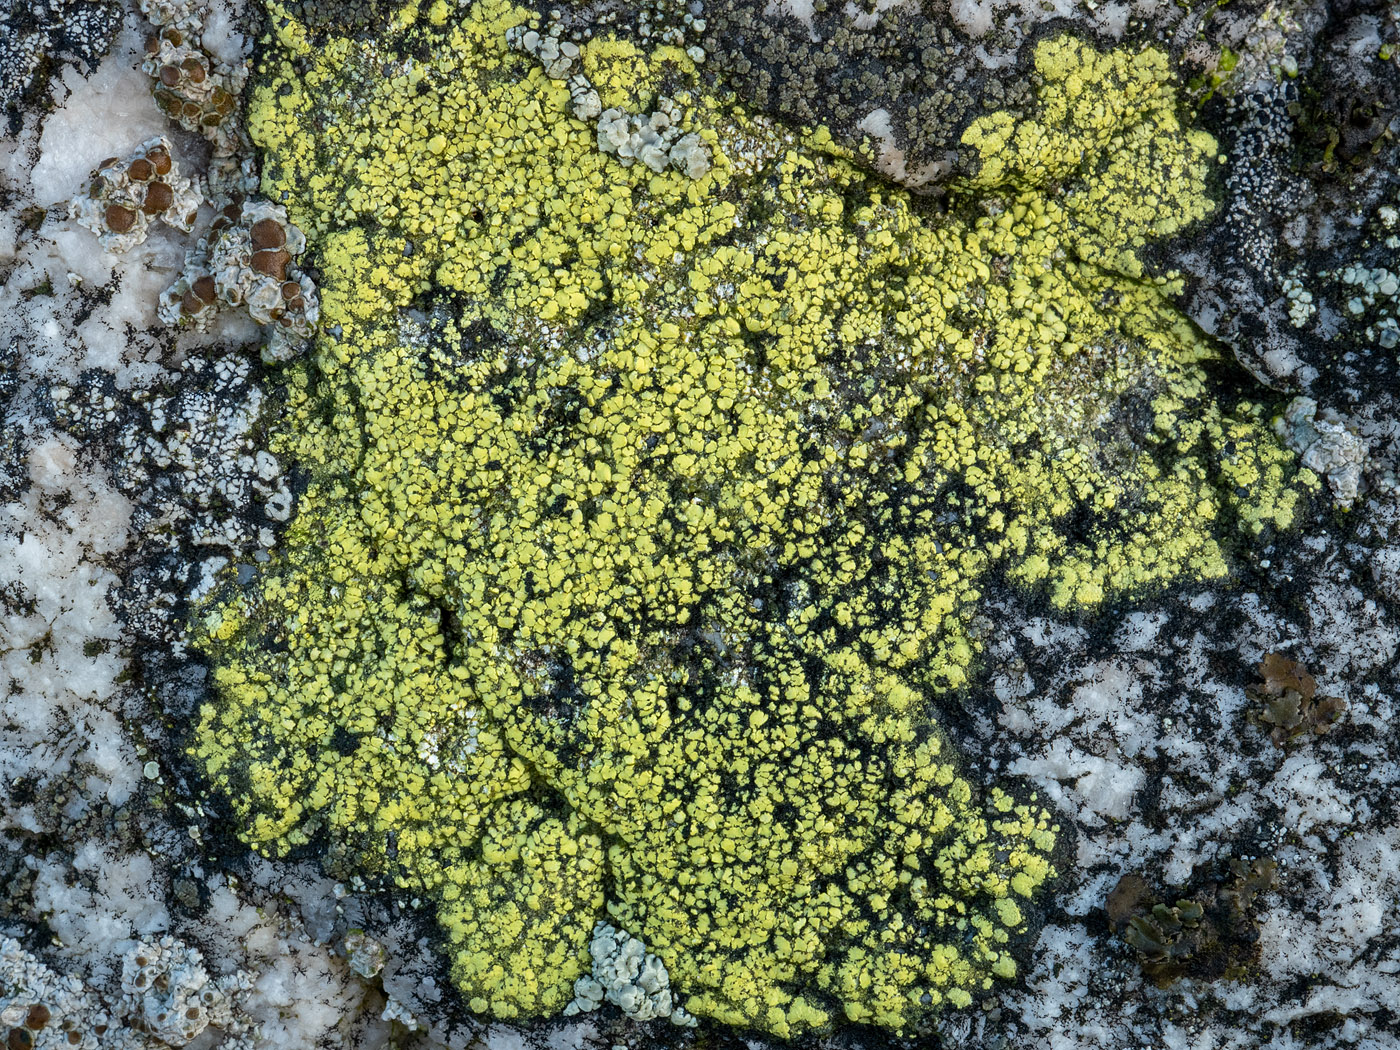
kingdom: Fungi
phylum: Ascomycota
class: Lecanoromycetes
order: Rhizocarpales
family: Rhizocarpaceae
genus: Rhizocarpon
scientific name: Rhizocarpon geographicum
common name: gulgrøn landkortlav
